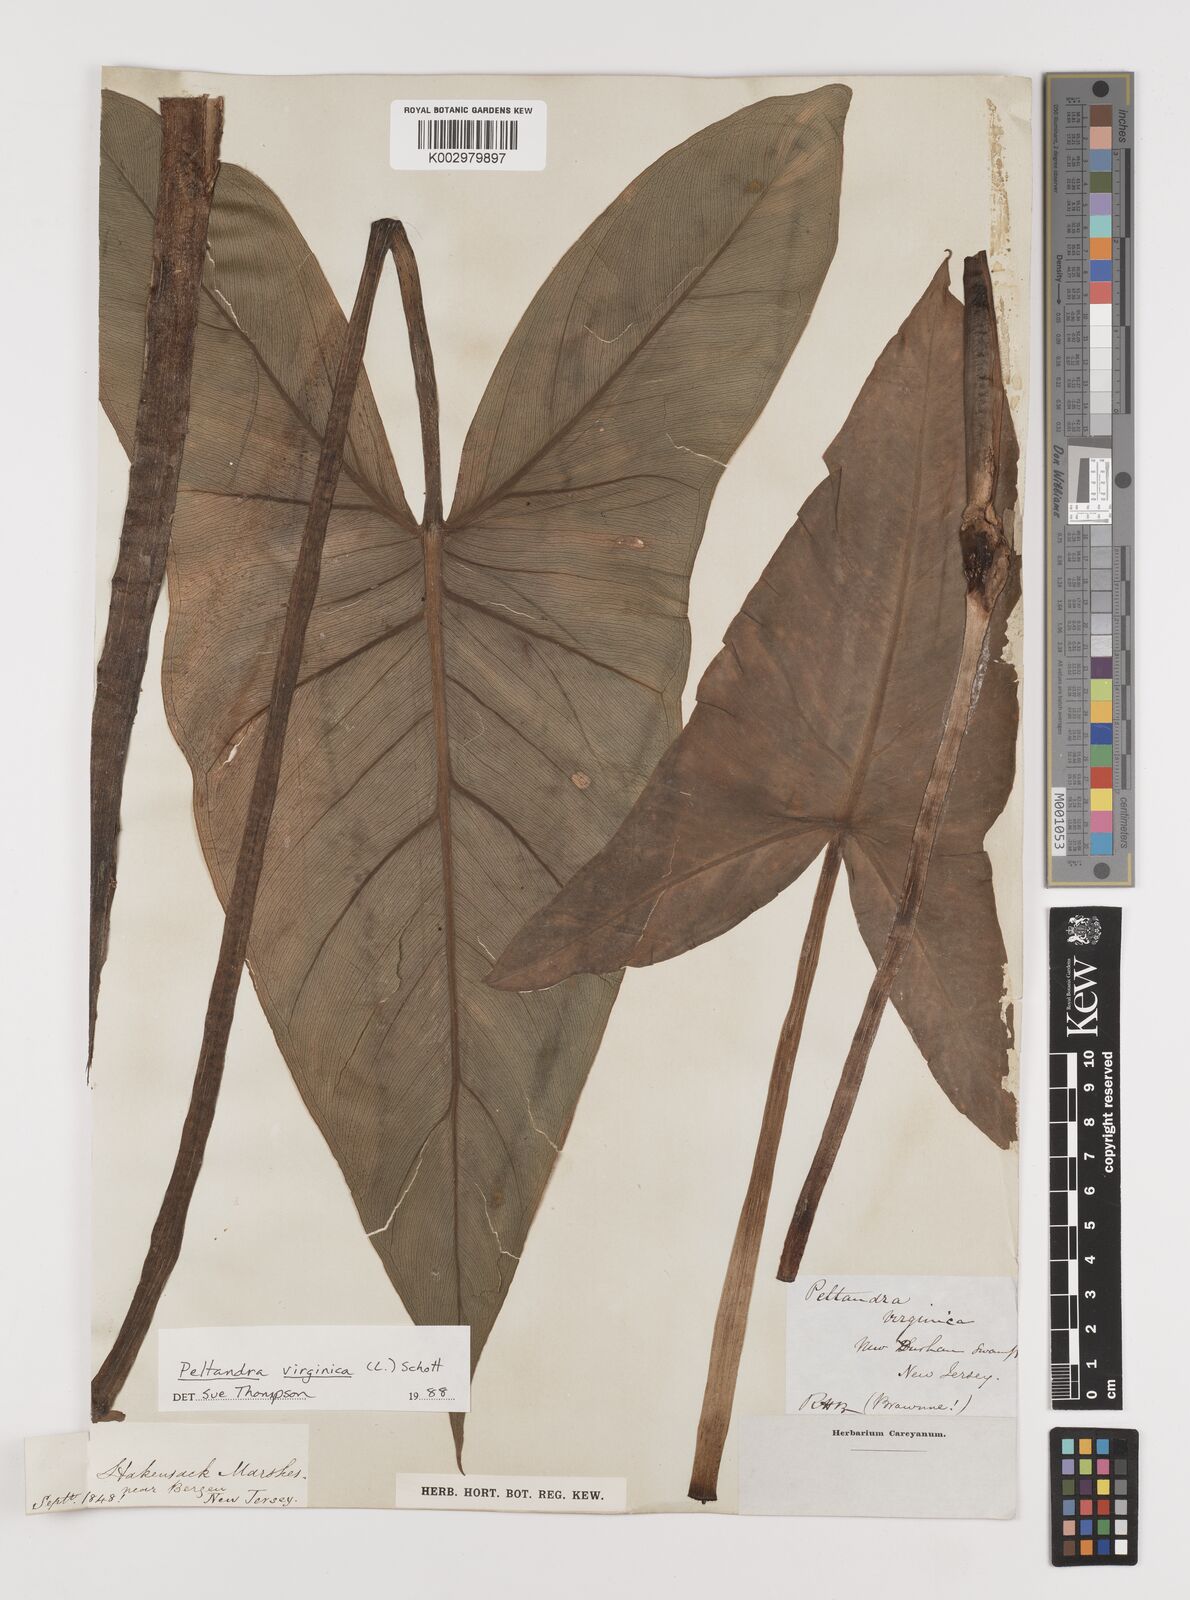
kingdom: Plantae
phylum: Tracheophyta
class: Liliopsida
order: Alismatales
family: Araceae
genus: Peltandra
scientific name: Peltandra virginica
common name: Arrow arum
